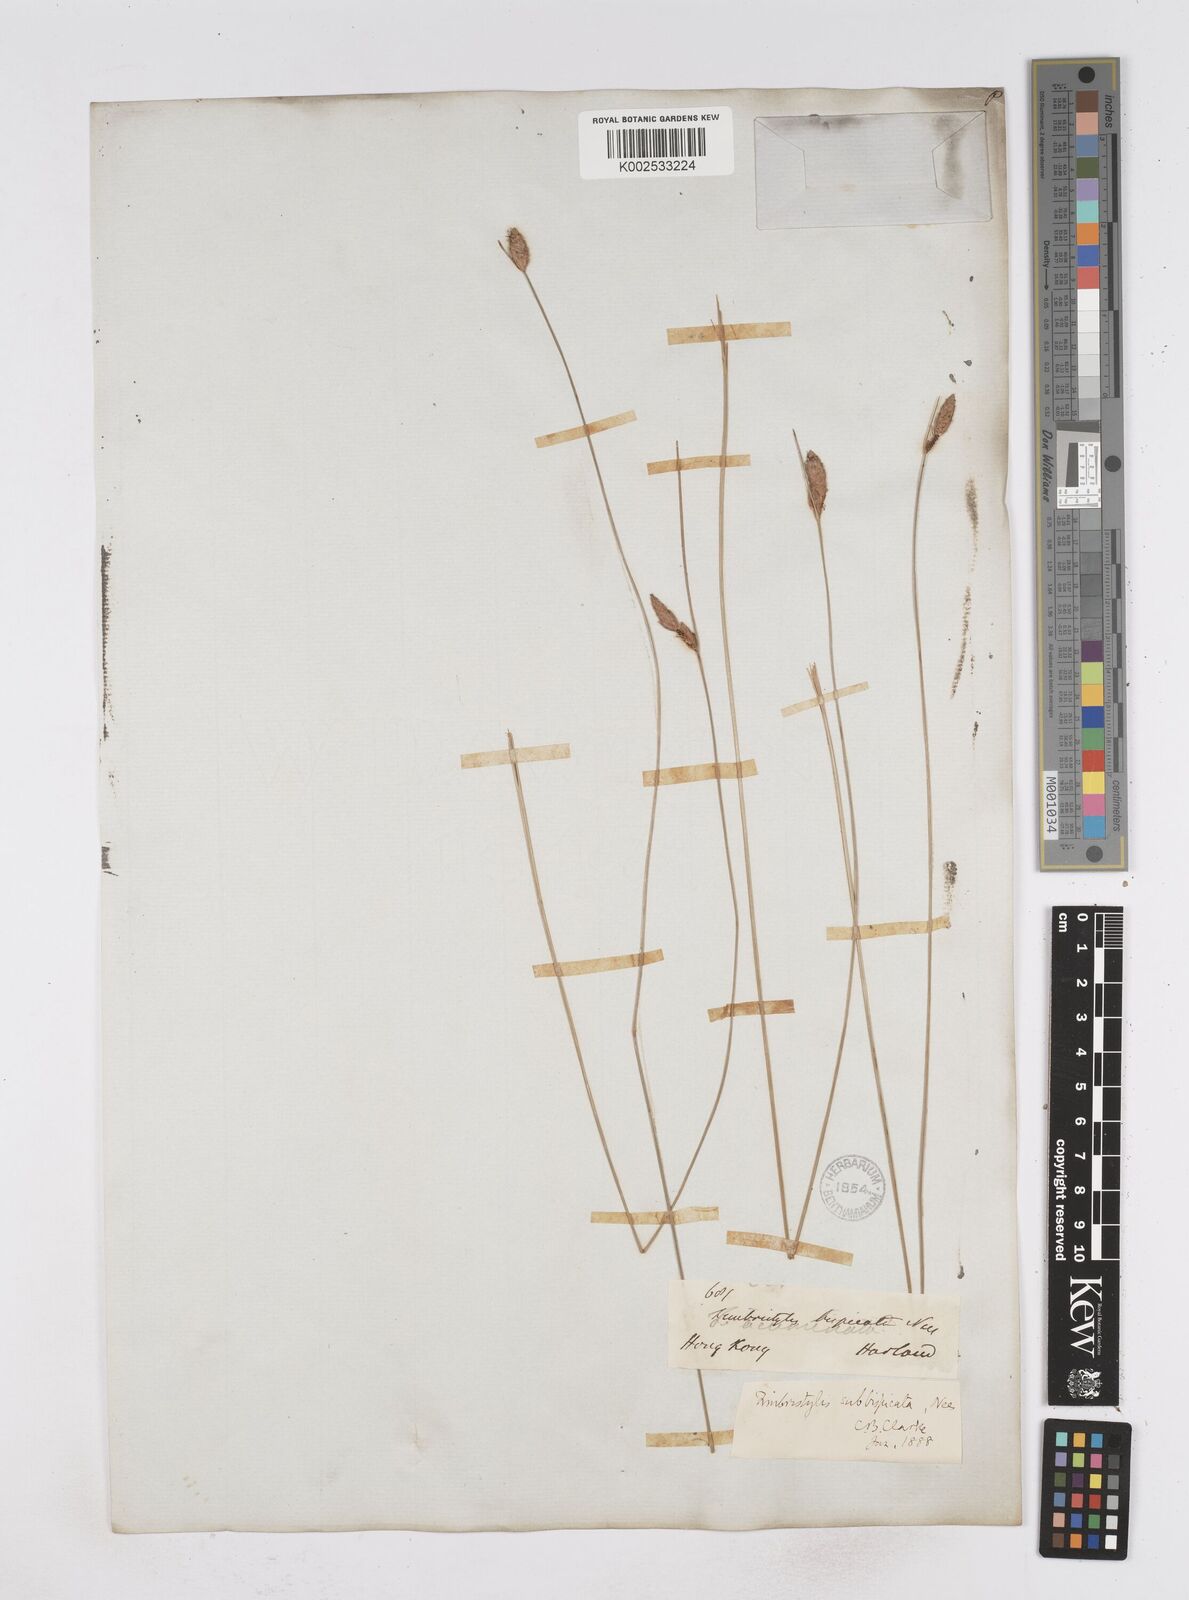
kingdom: Plantae
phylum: Tracheophyta
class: Liliopsida
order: Poales
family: Cyperaceae
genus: Fimbristylis
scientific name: Fimbristylis tristachya
